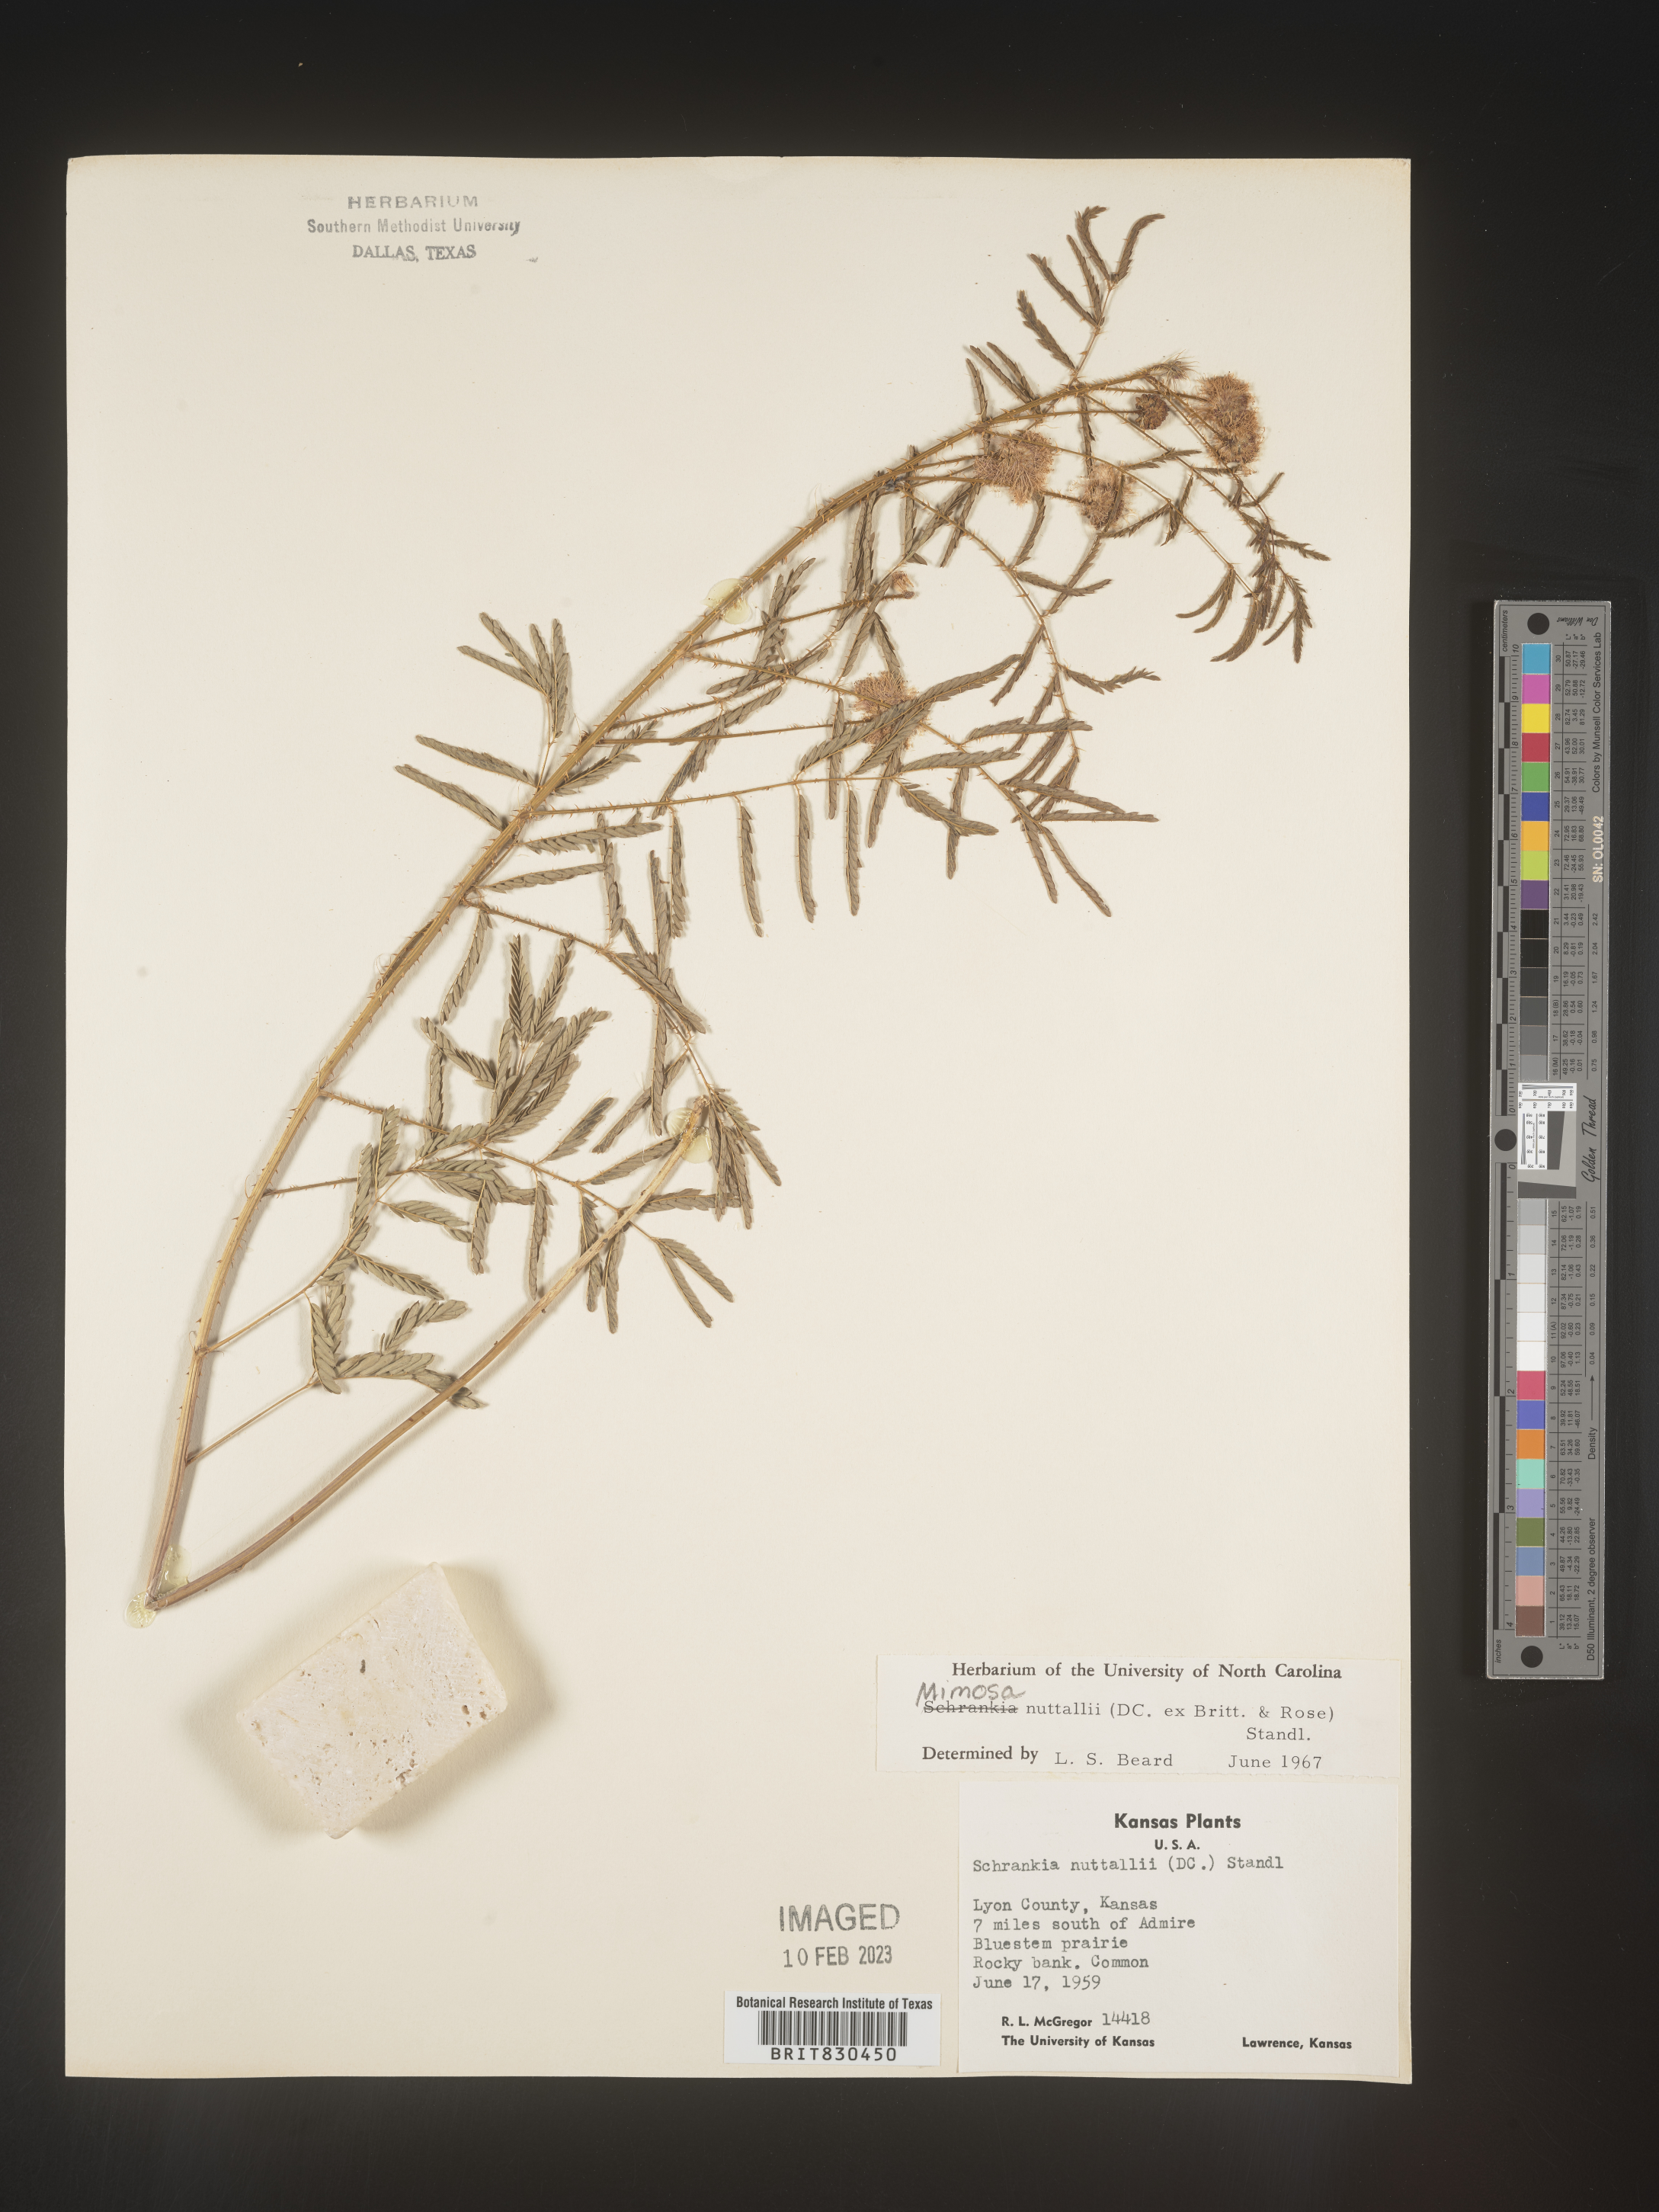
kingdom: Plantae
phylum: Tracheophyta
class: Magnoliopsida
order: Fabales
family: Fabaceae
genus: Mimosa
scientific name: Mimosa quadrivalvis
